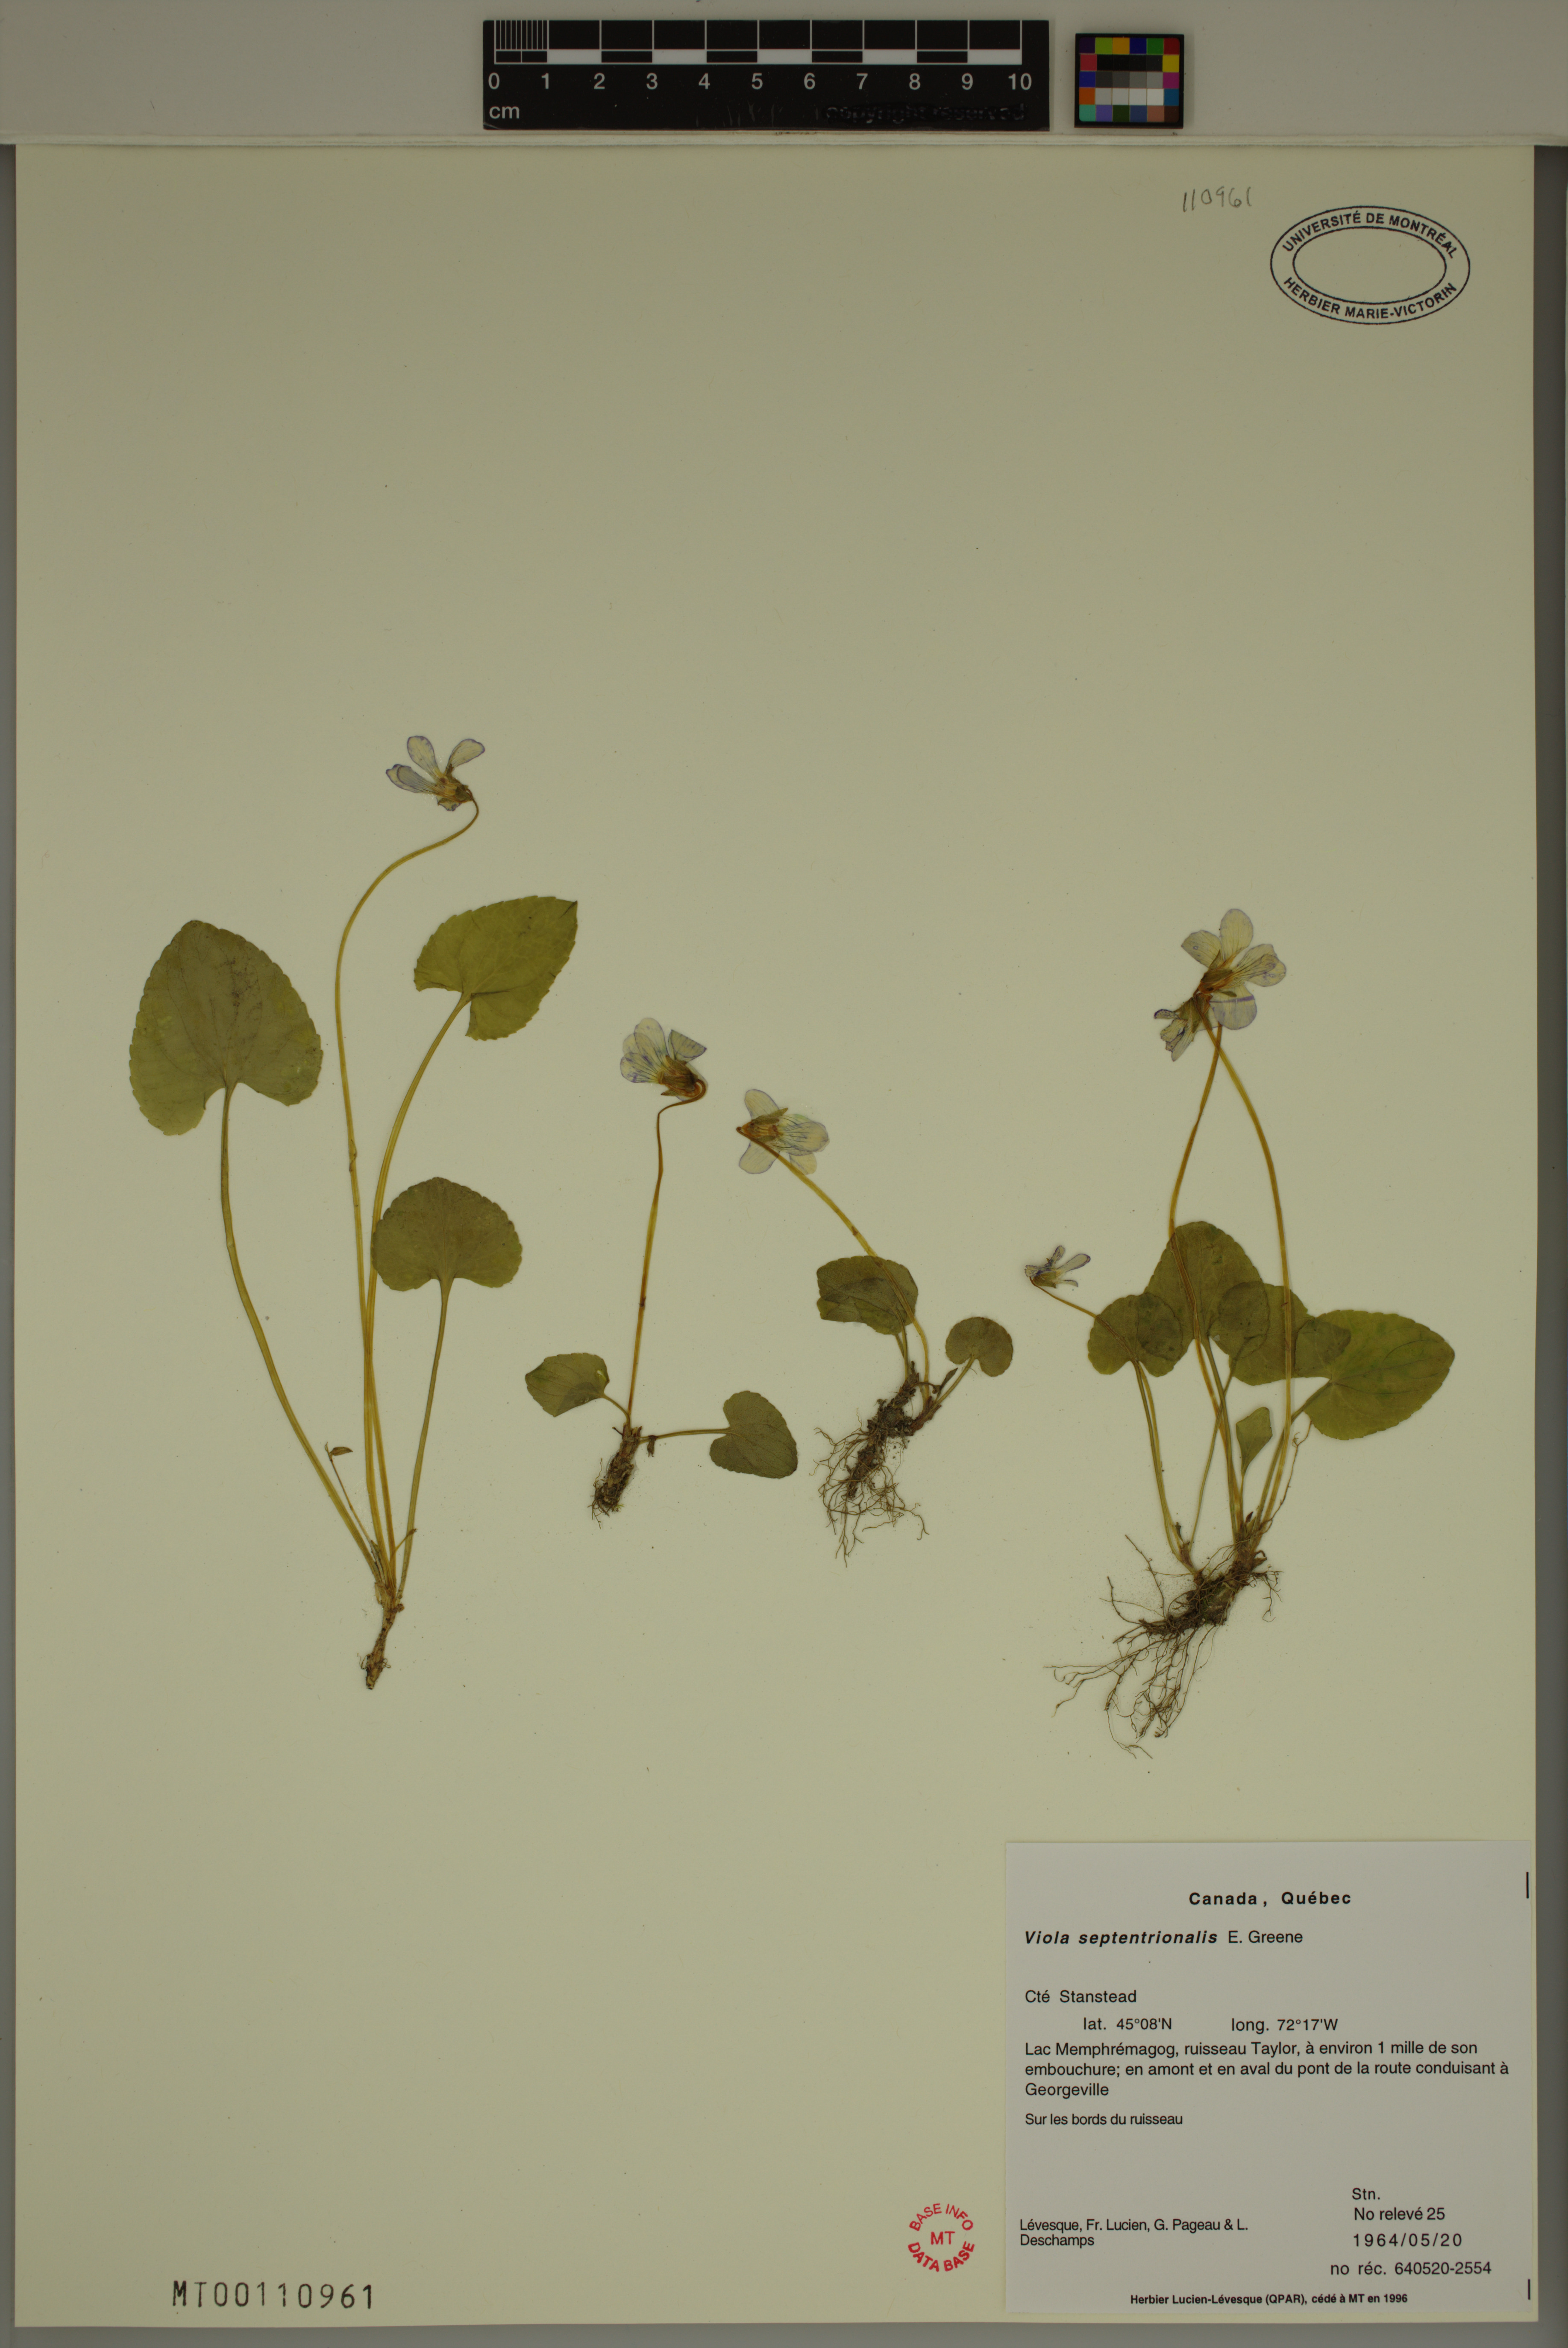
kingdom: Plantae
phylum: Tracheophyta
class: Magnoliopsida
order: Malpighiales
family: Violaceae
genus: Viola
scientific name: Viola sororia
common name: Dooryard violet
